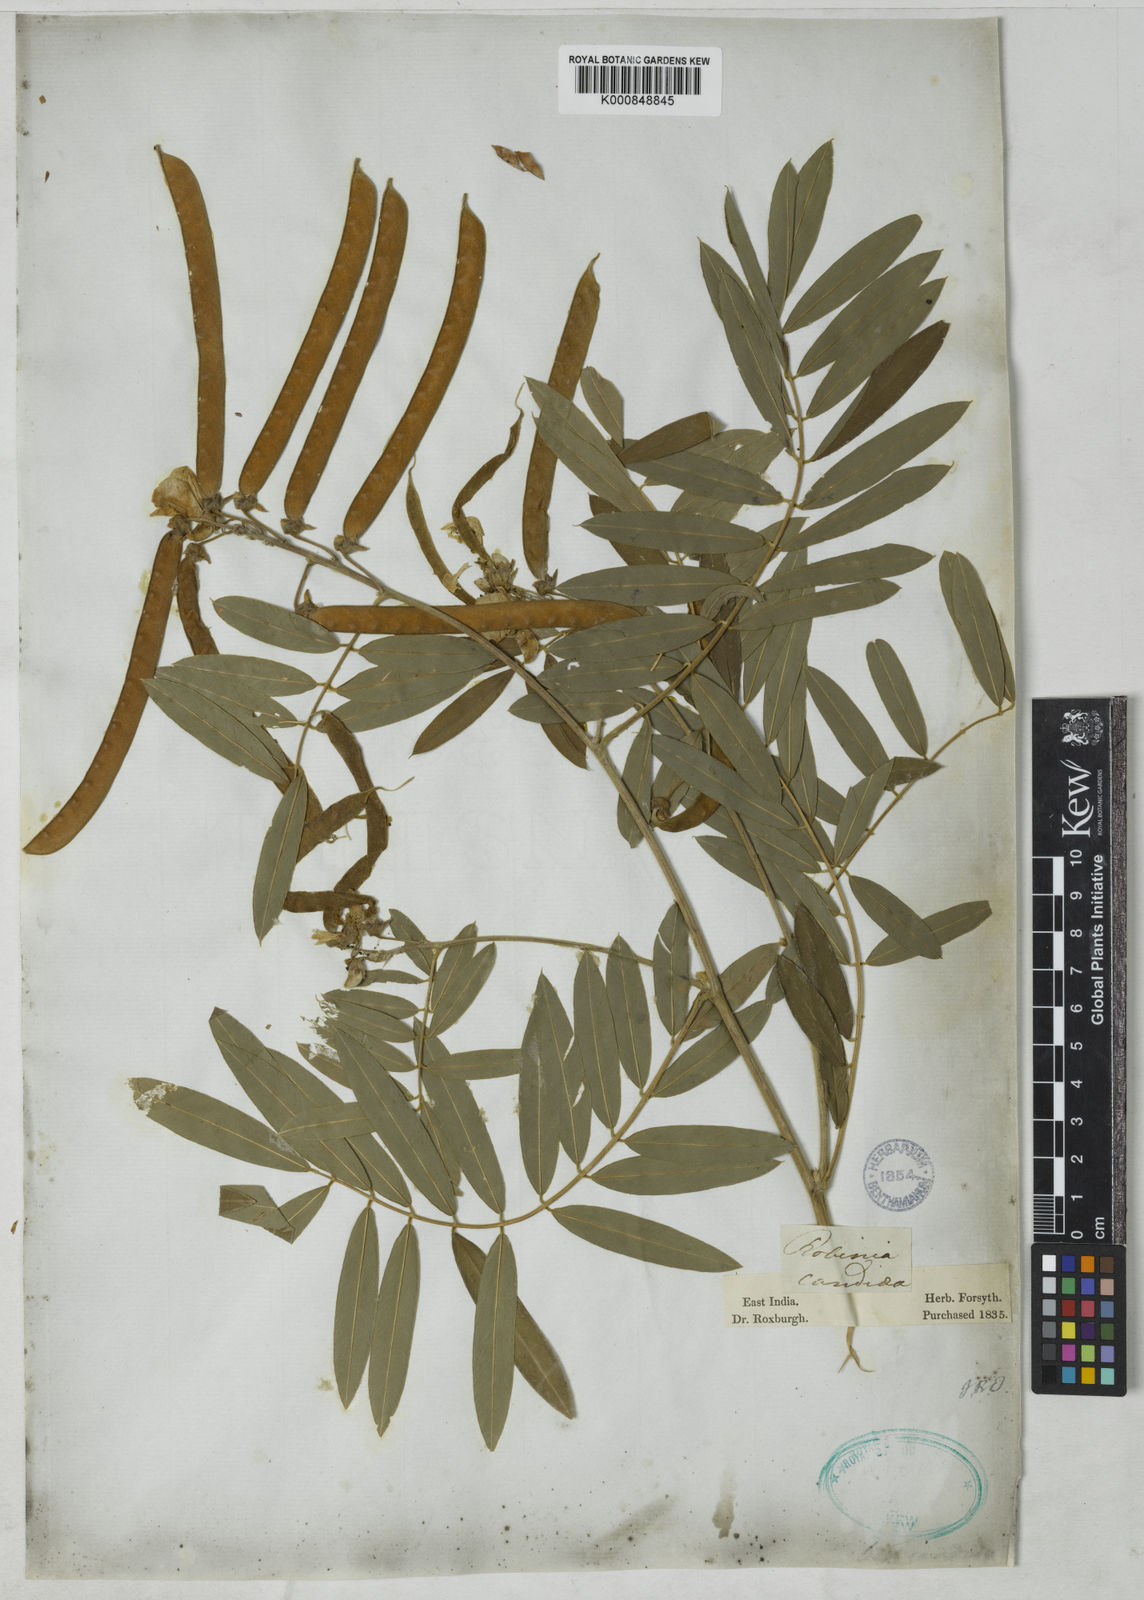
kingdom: Plantae
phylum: Tracheophyta
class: Magnoliopsida
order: Fabales
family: Fabaceae
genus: Tephrosia
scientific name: Tephrosia candida
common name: White tephrosia
